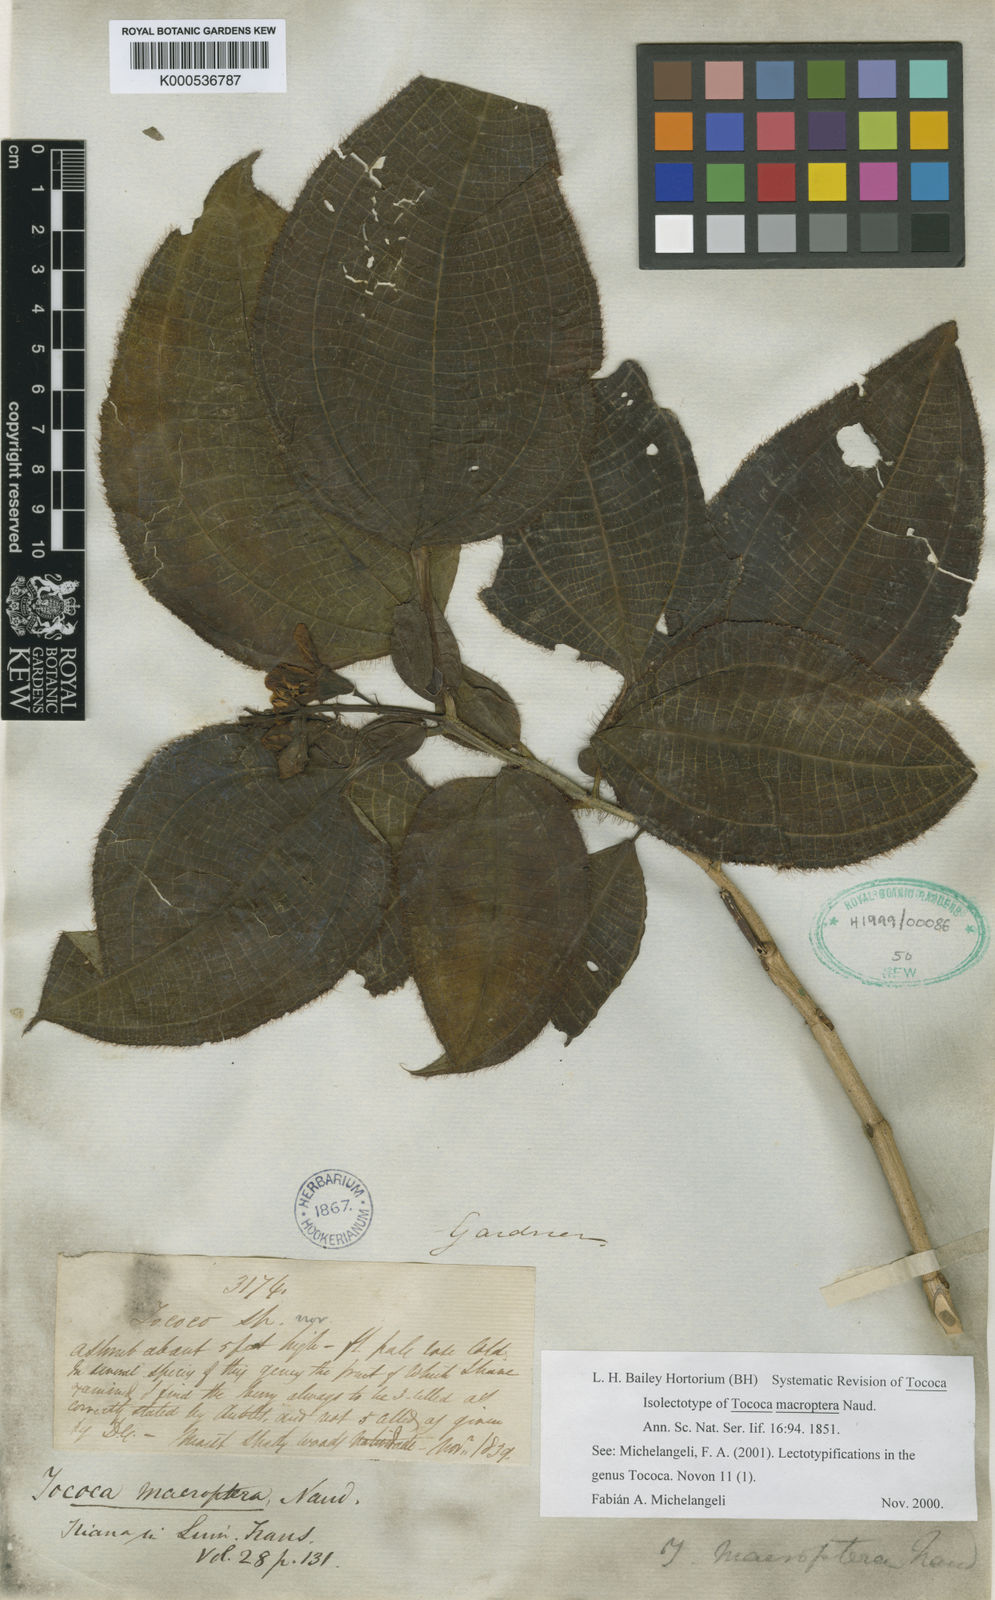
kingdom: Plantae
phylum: Tracheophyta
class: Magnoliopsida
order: Myrtales
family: Melastomataceae
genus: Miconia
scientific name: Miconia macroptera
